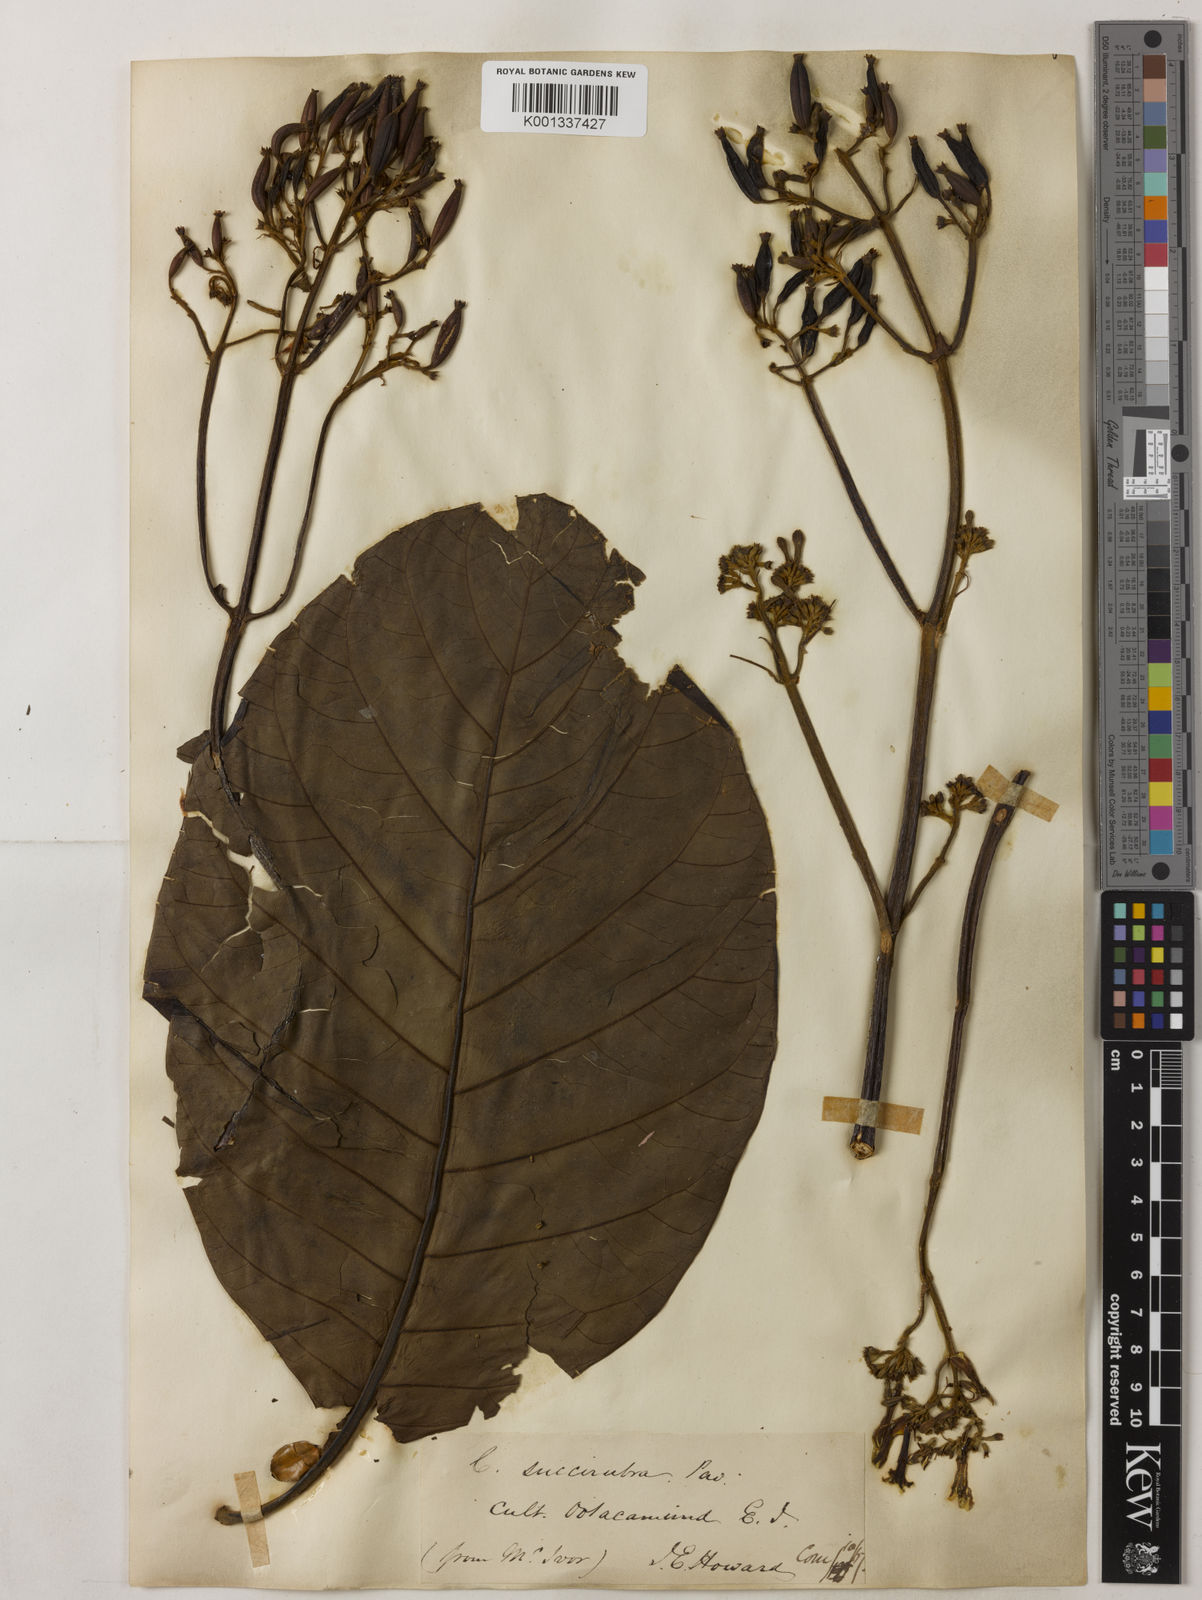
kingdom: Plantae
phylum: Tracheophyta
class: Magnoliopsida
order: Gentianales
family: Rubiaceae
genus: Cinchona
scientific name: Cinchona pubescens
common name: Quinine
